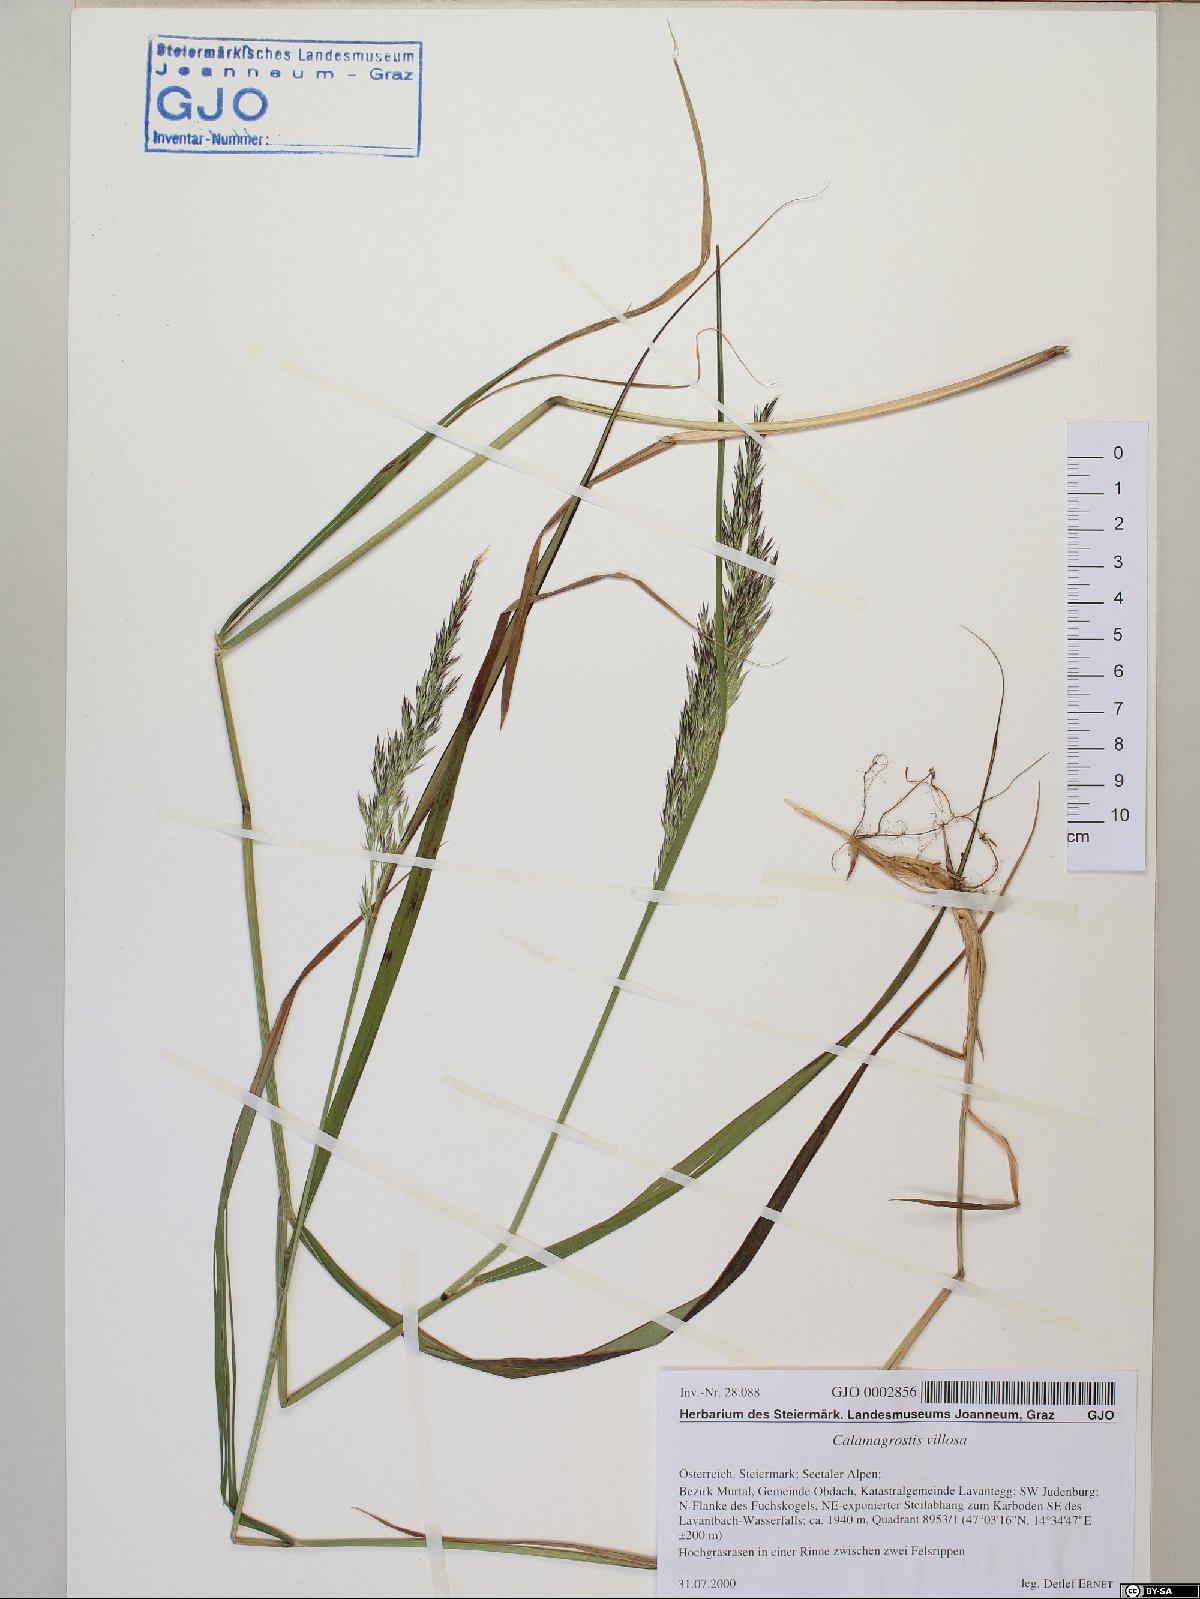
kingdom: Plantae
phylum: Tracheophyta
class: Liliopsida
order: Poales
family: Poaceae
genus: Calamagrostis
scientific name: Calamagrostis villosa
